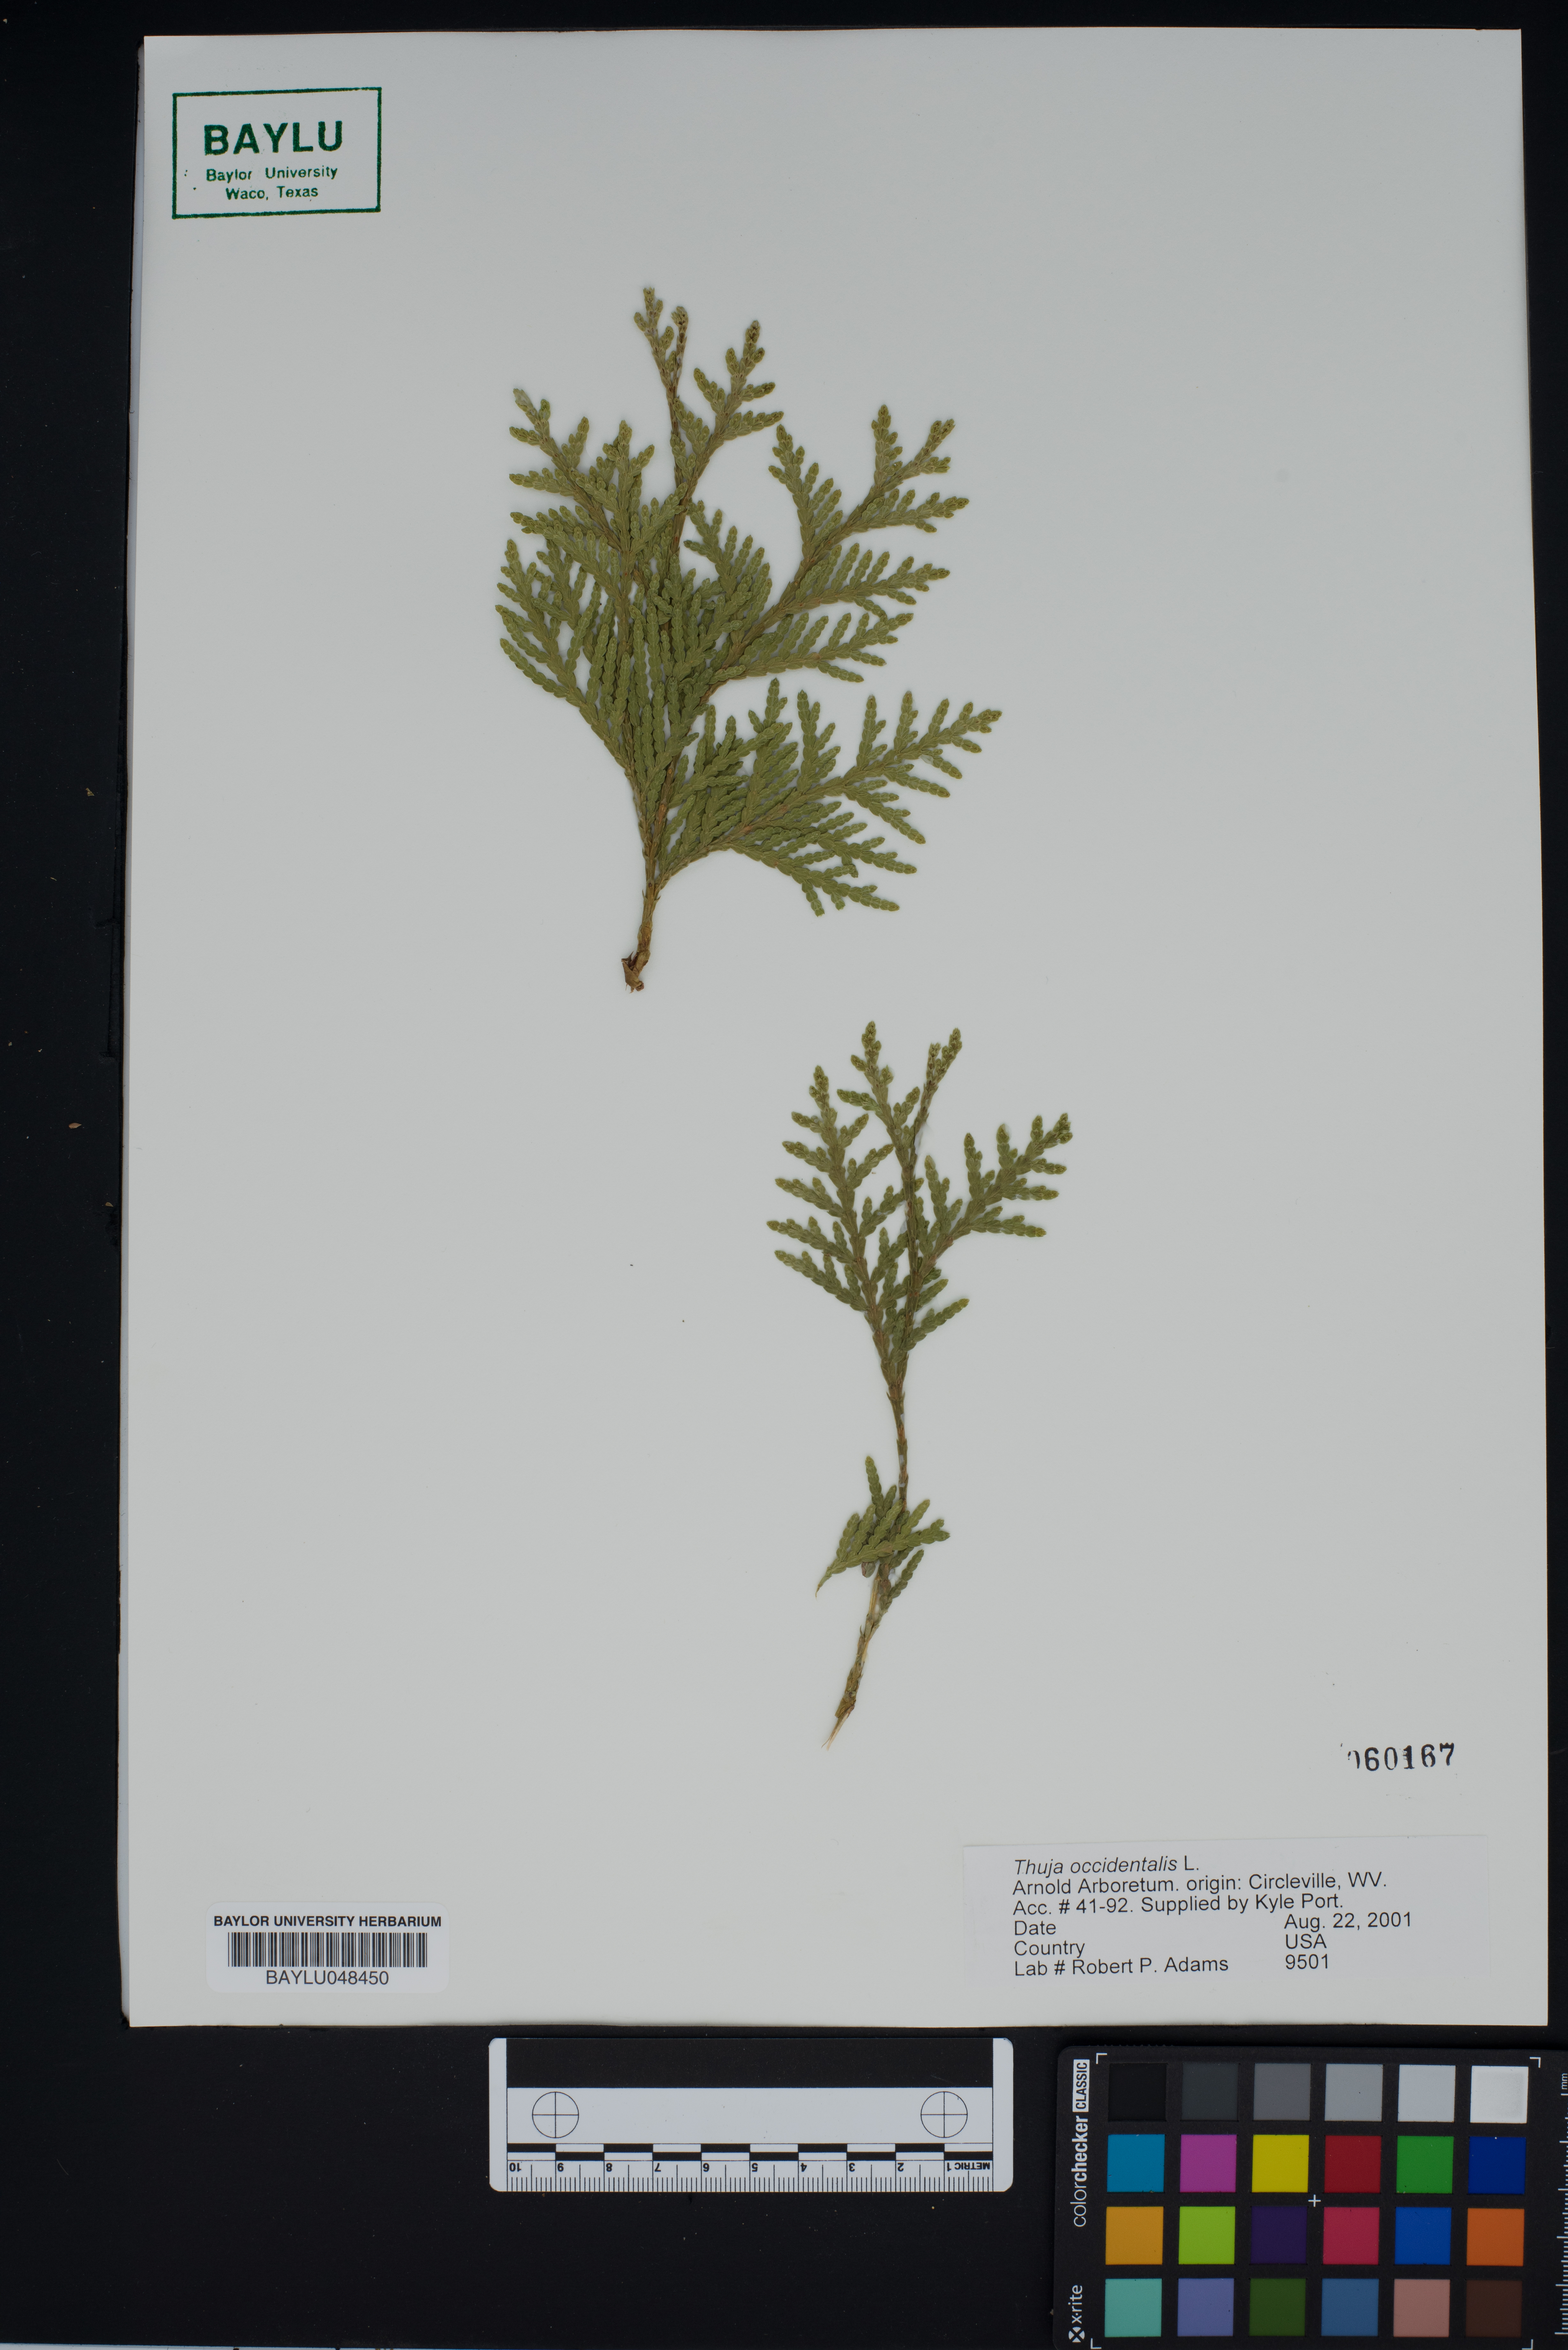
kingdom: Plantae
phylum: Tracheophyta
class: Pinopsida
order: Pinales
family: Cupressaceae
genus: Thuja
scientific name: Thuja occidentalis
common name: Northern white-cedar
